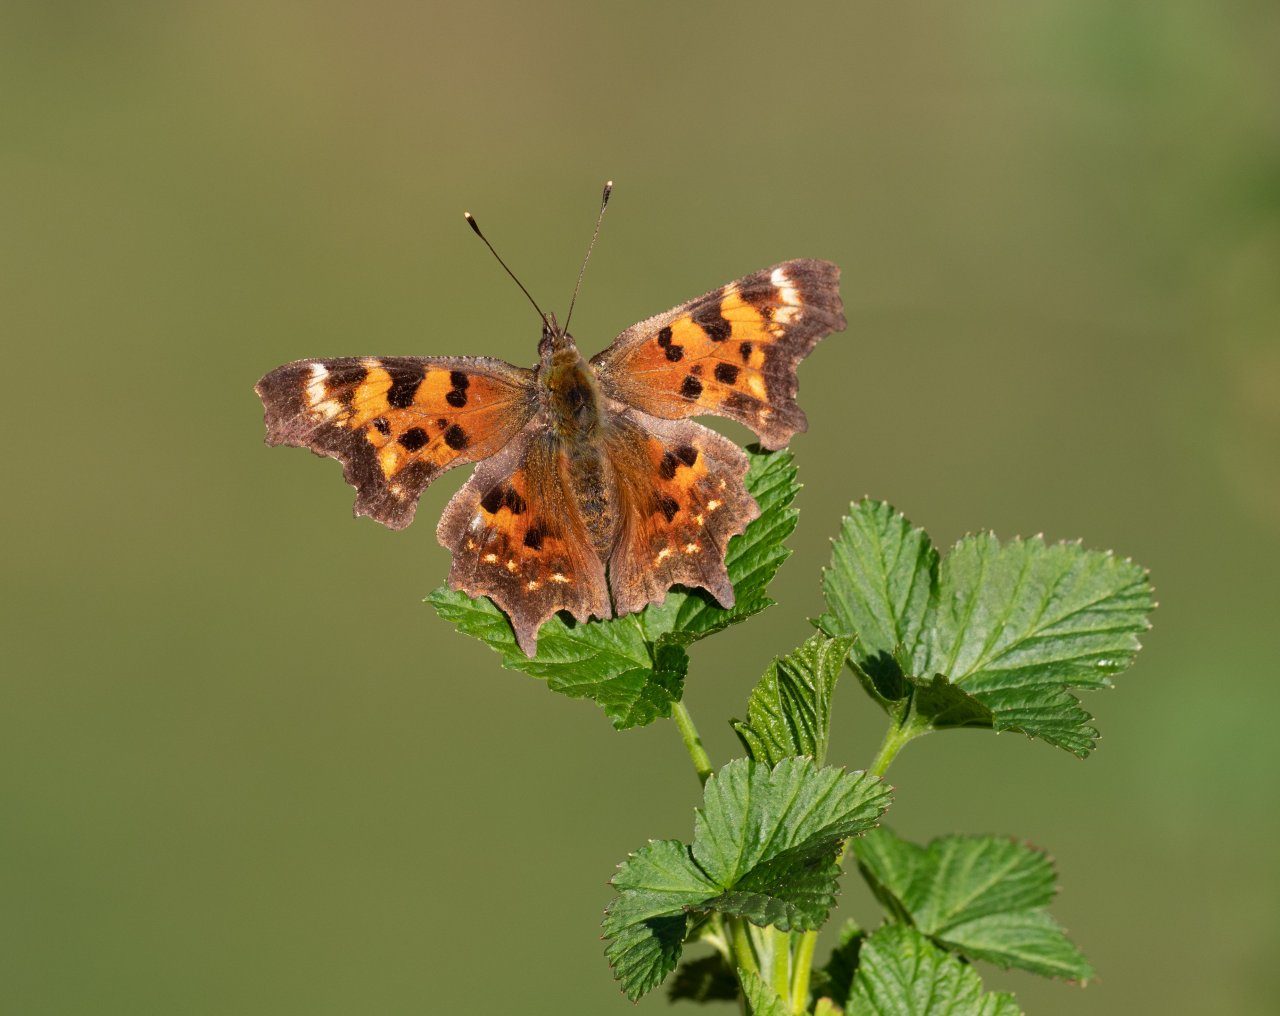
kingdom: Animalia
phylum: Arthropoda
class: Insecta
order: Lepidoptera
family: Nymphalidae
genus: Polygonia
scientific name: Polygonia faunus
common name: Green Comma
